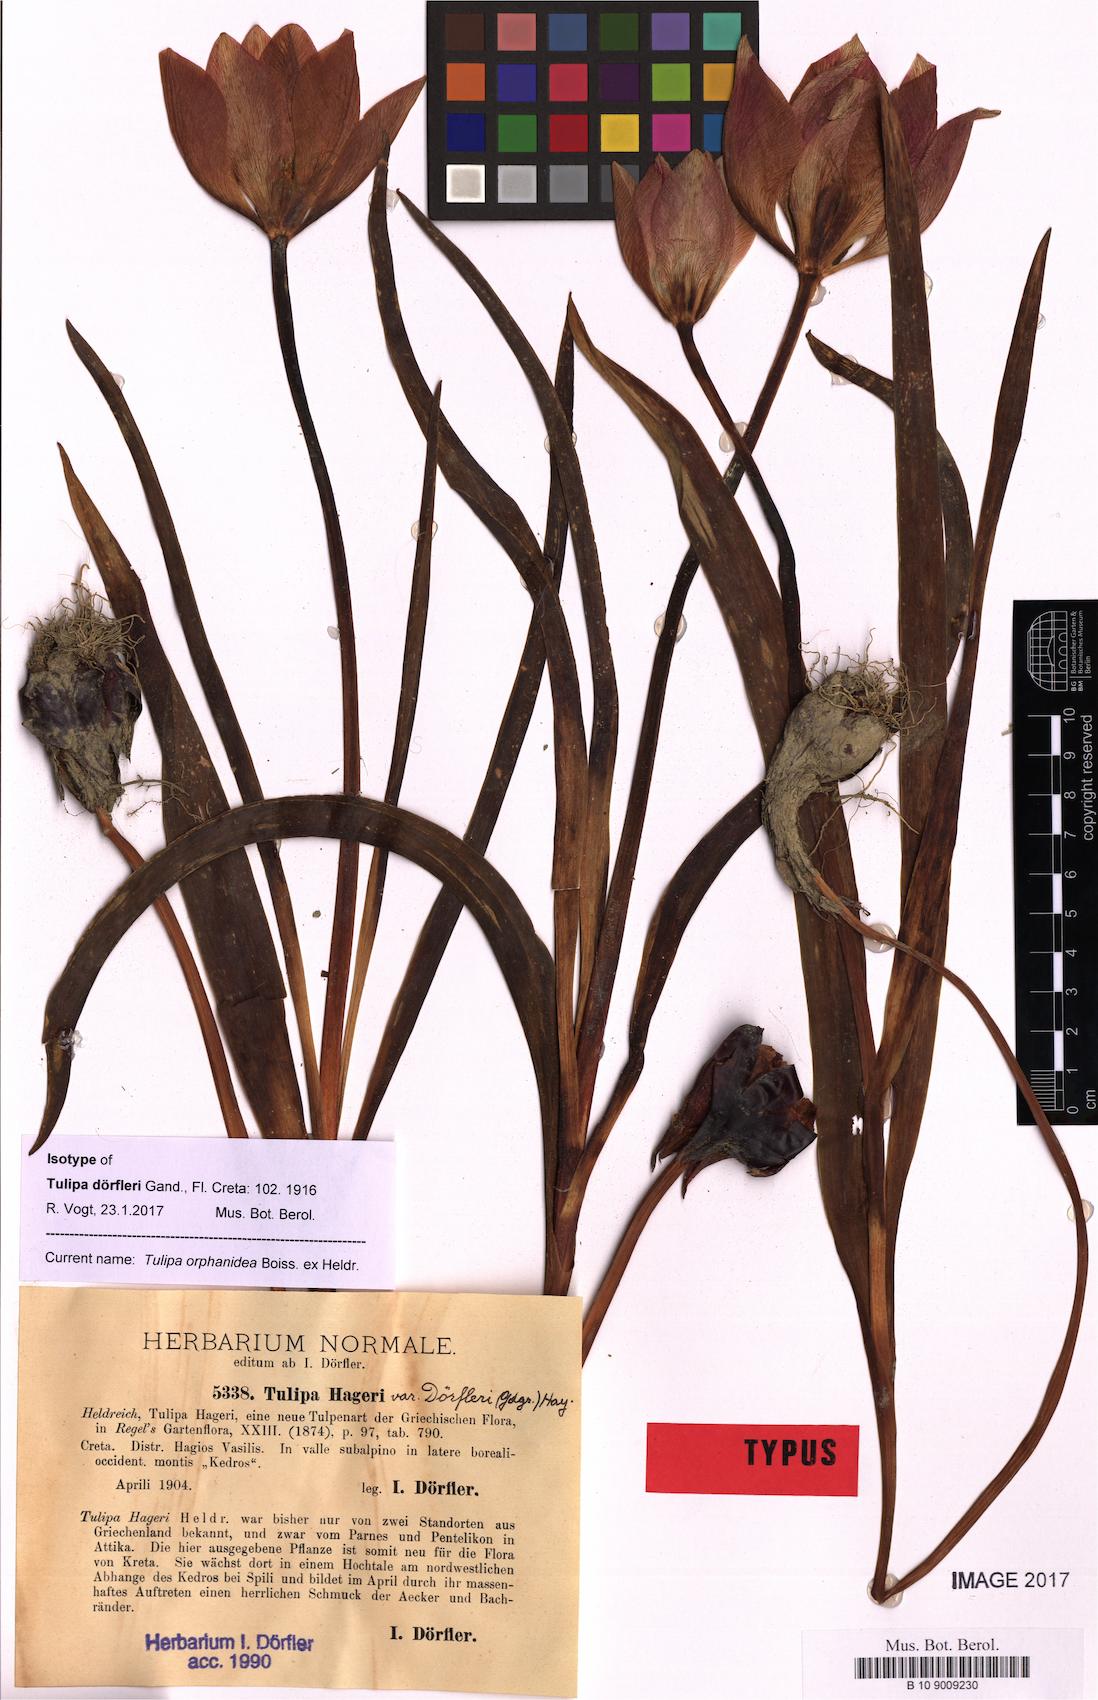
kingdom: Plantae
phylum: Tracheophyta
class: Liliopsida
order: Liliales
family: Liliaceae
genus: Tulipa
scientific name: Tulipa orphanidea
